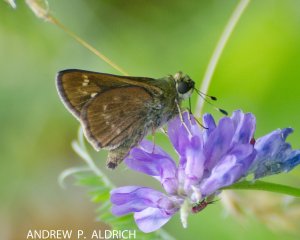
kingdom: Animalia
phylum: Arthropoda
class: Insecta
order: Lepidoptera
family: Hesperiidae
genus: Vernia
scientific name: Vernia verna
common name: Little Glassywing
